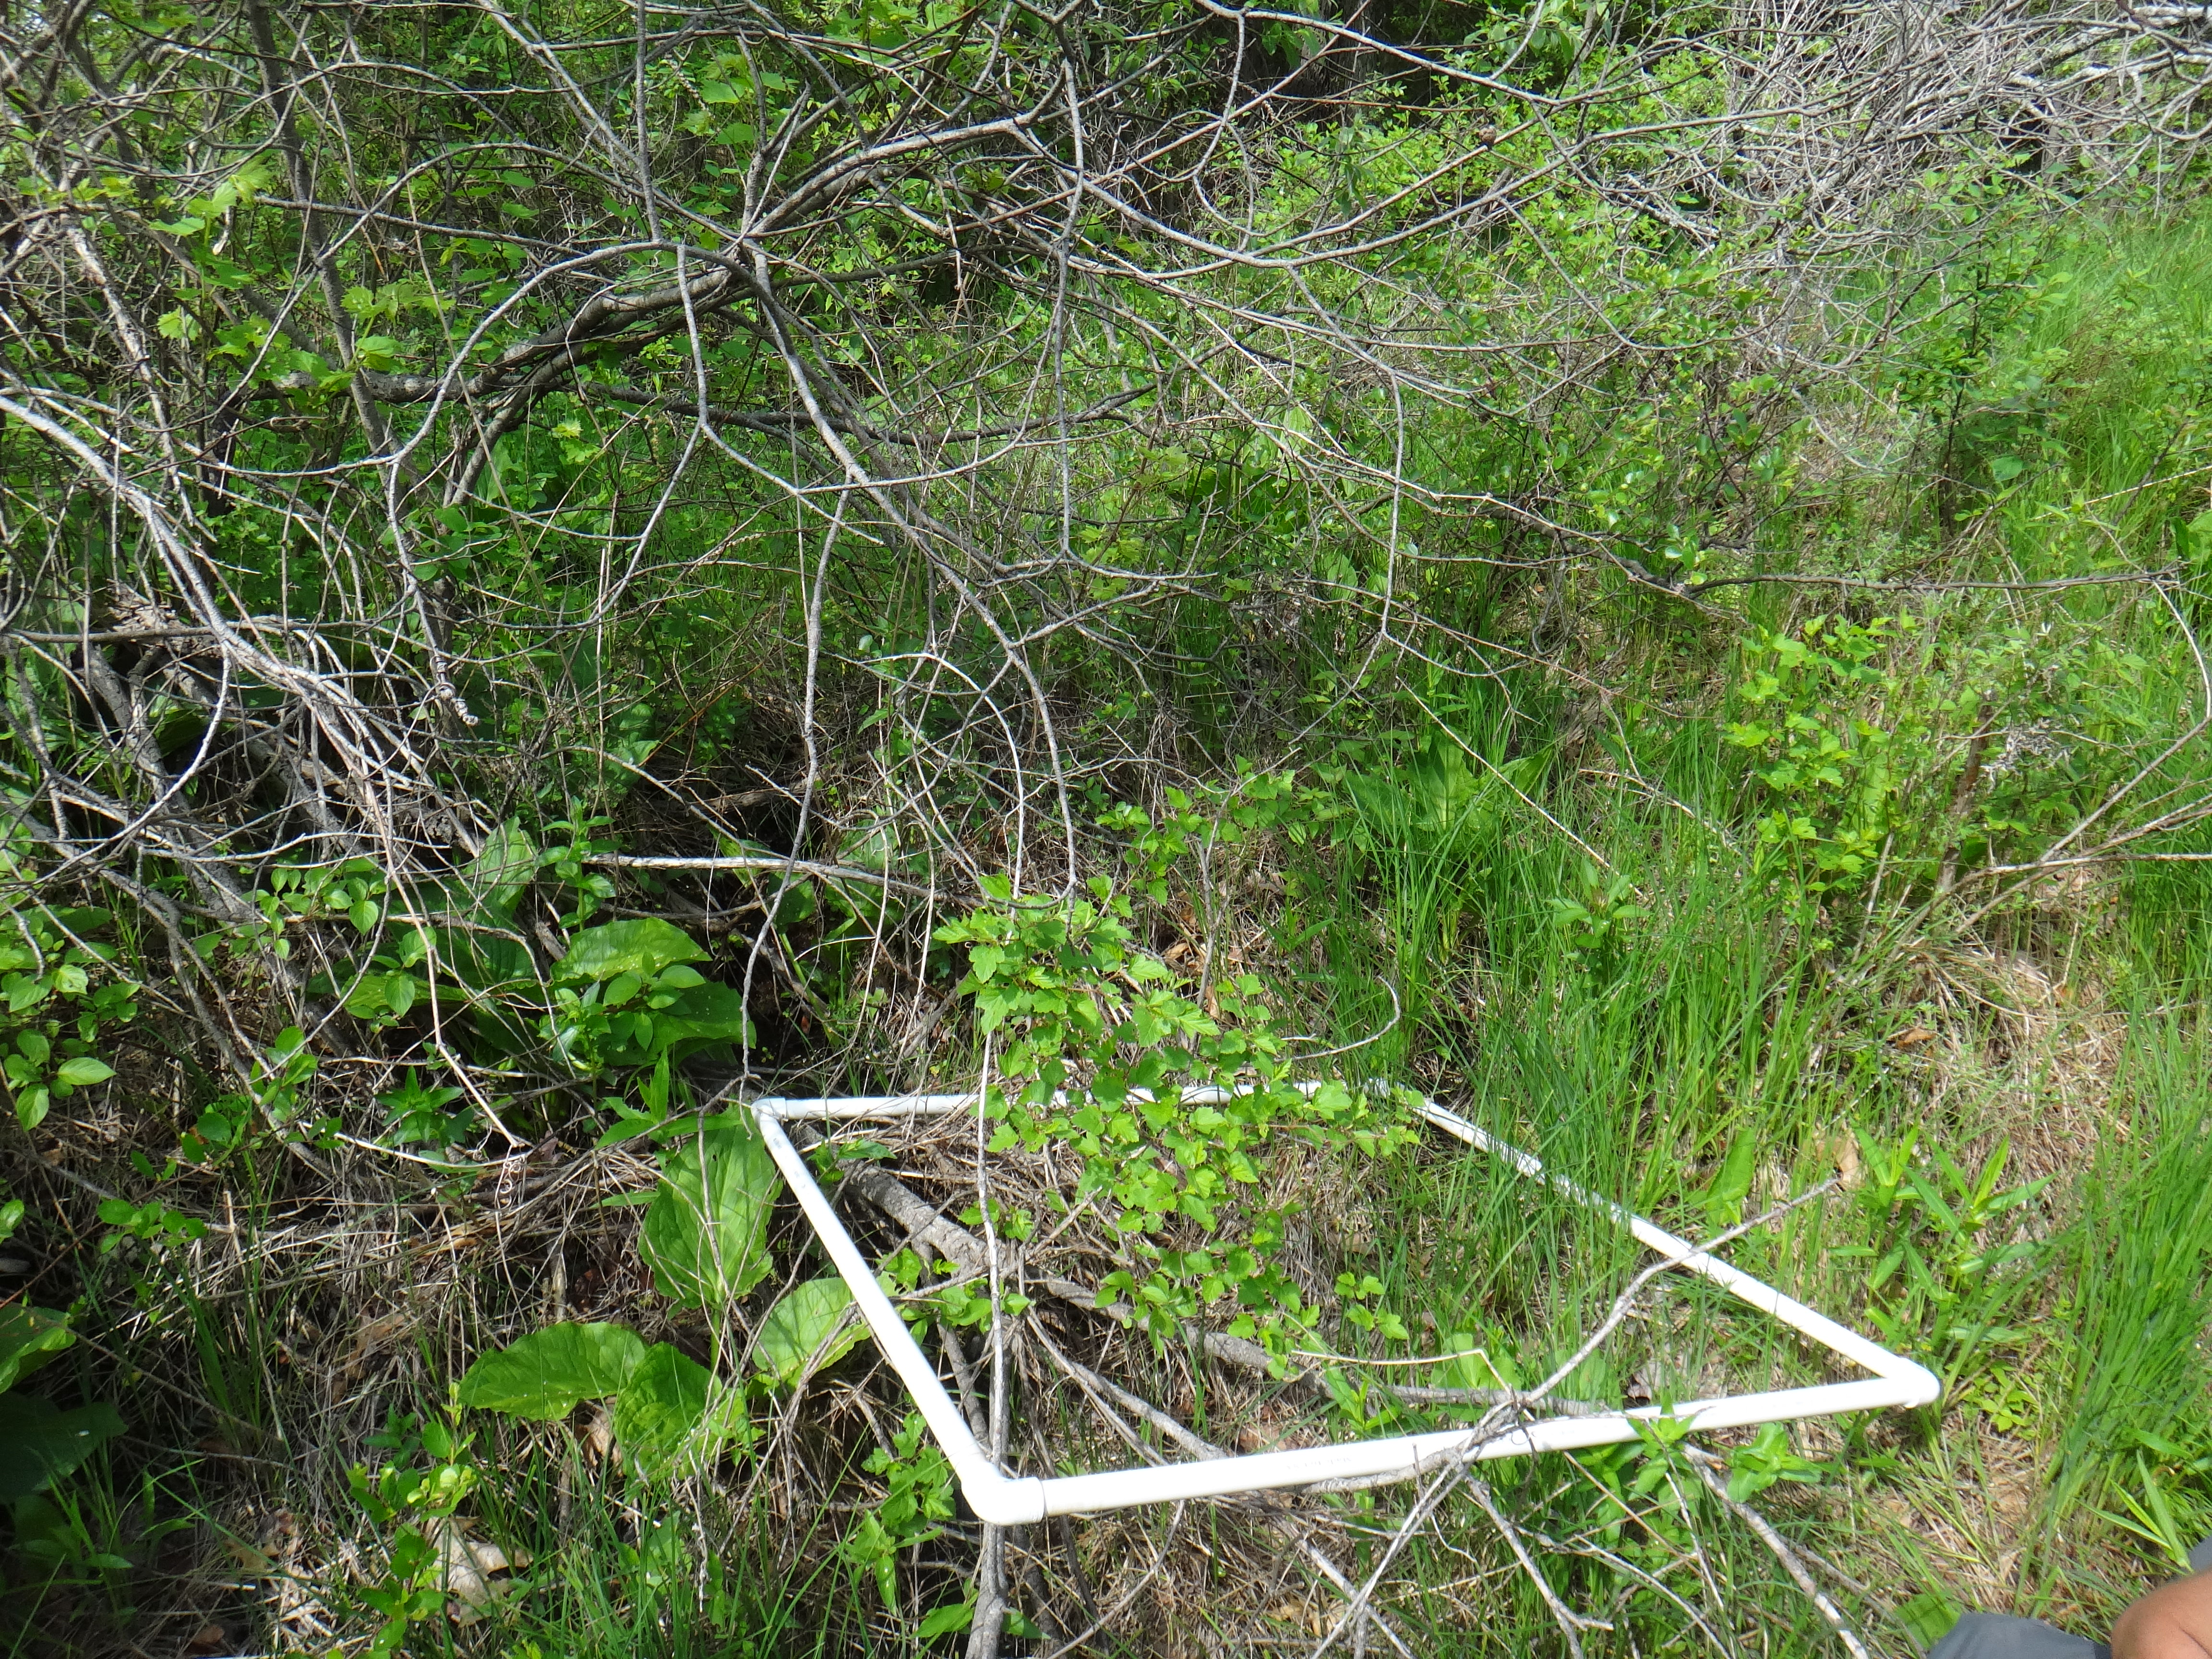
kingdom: Plantae
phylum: Tracheophyta
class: Magnoliopsida
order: Ericales
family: Balsaminaceae
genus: Impatiens
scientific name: Impatiens capensis
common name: Orange balsam
